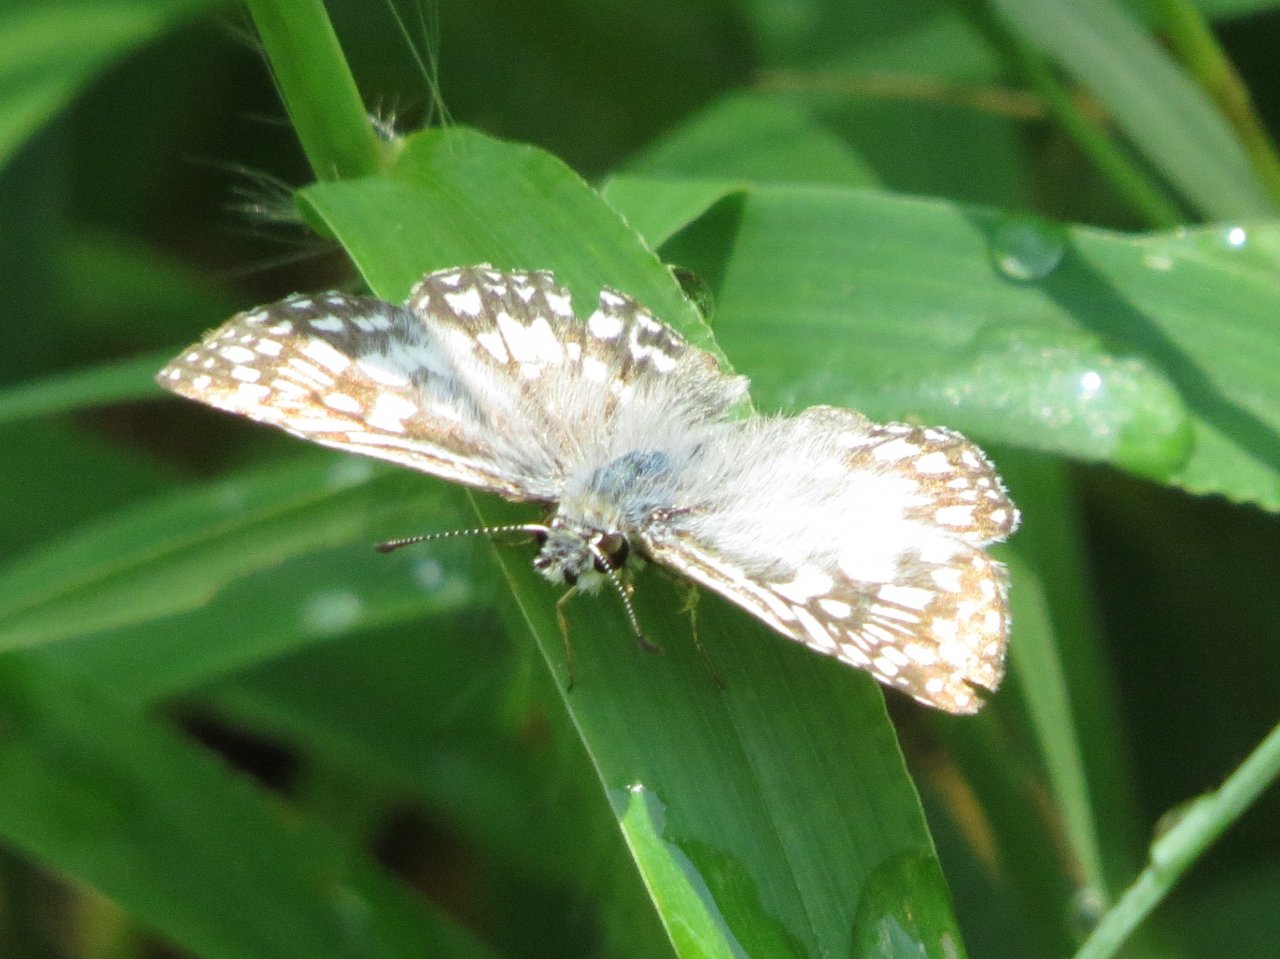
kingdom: Animalia
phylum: Arthropoda
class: Insecta
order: Lepidoptera
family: Hesperiidae
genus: Pyrgus
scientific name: Pyrgus oileus
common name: Tropical Checkered-Skipper
